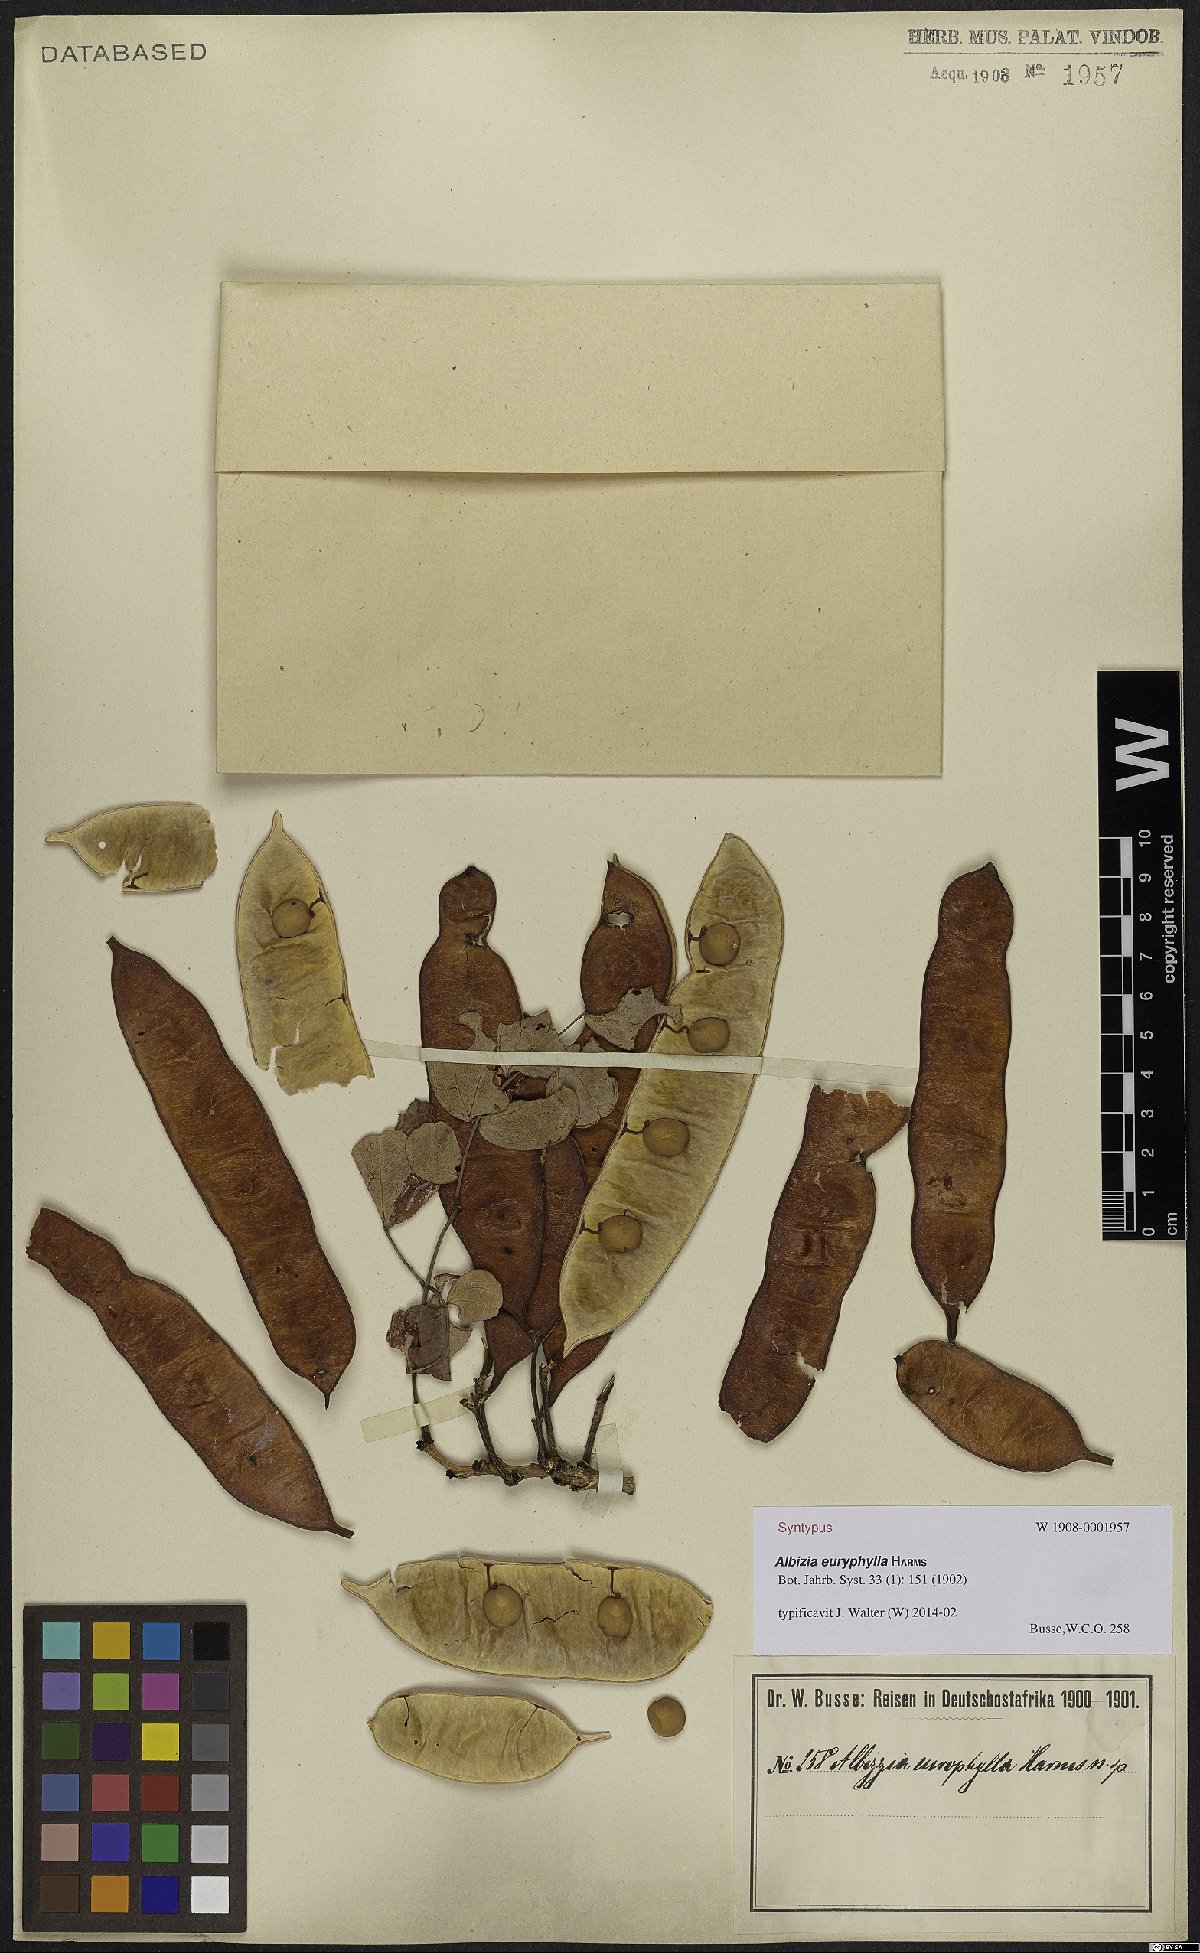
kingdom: Plantae
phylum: Tracheophyta
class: Magnoliopsida
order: Fabales
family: Fabaceae
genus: Albizia
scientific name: Albizia euryphylla
